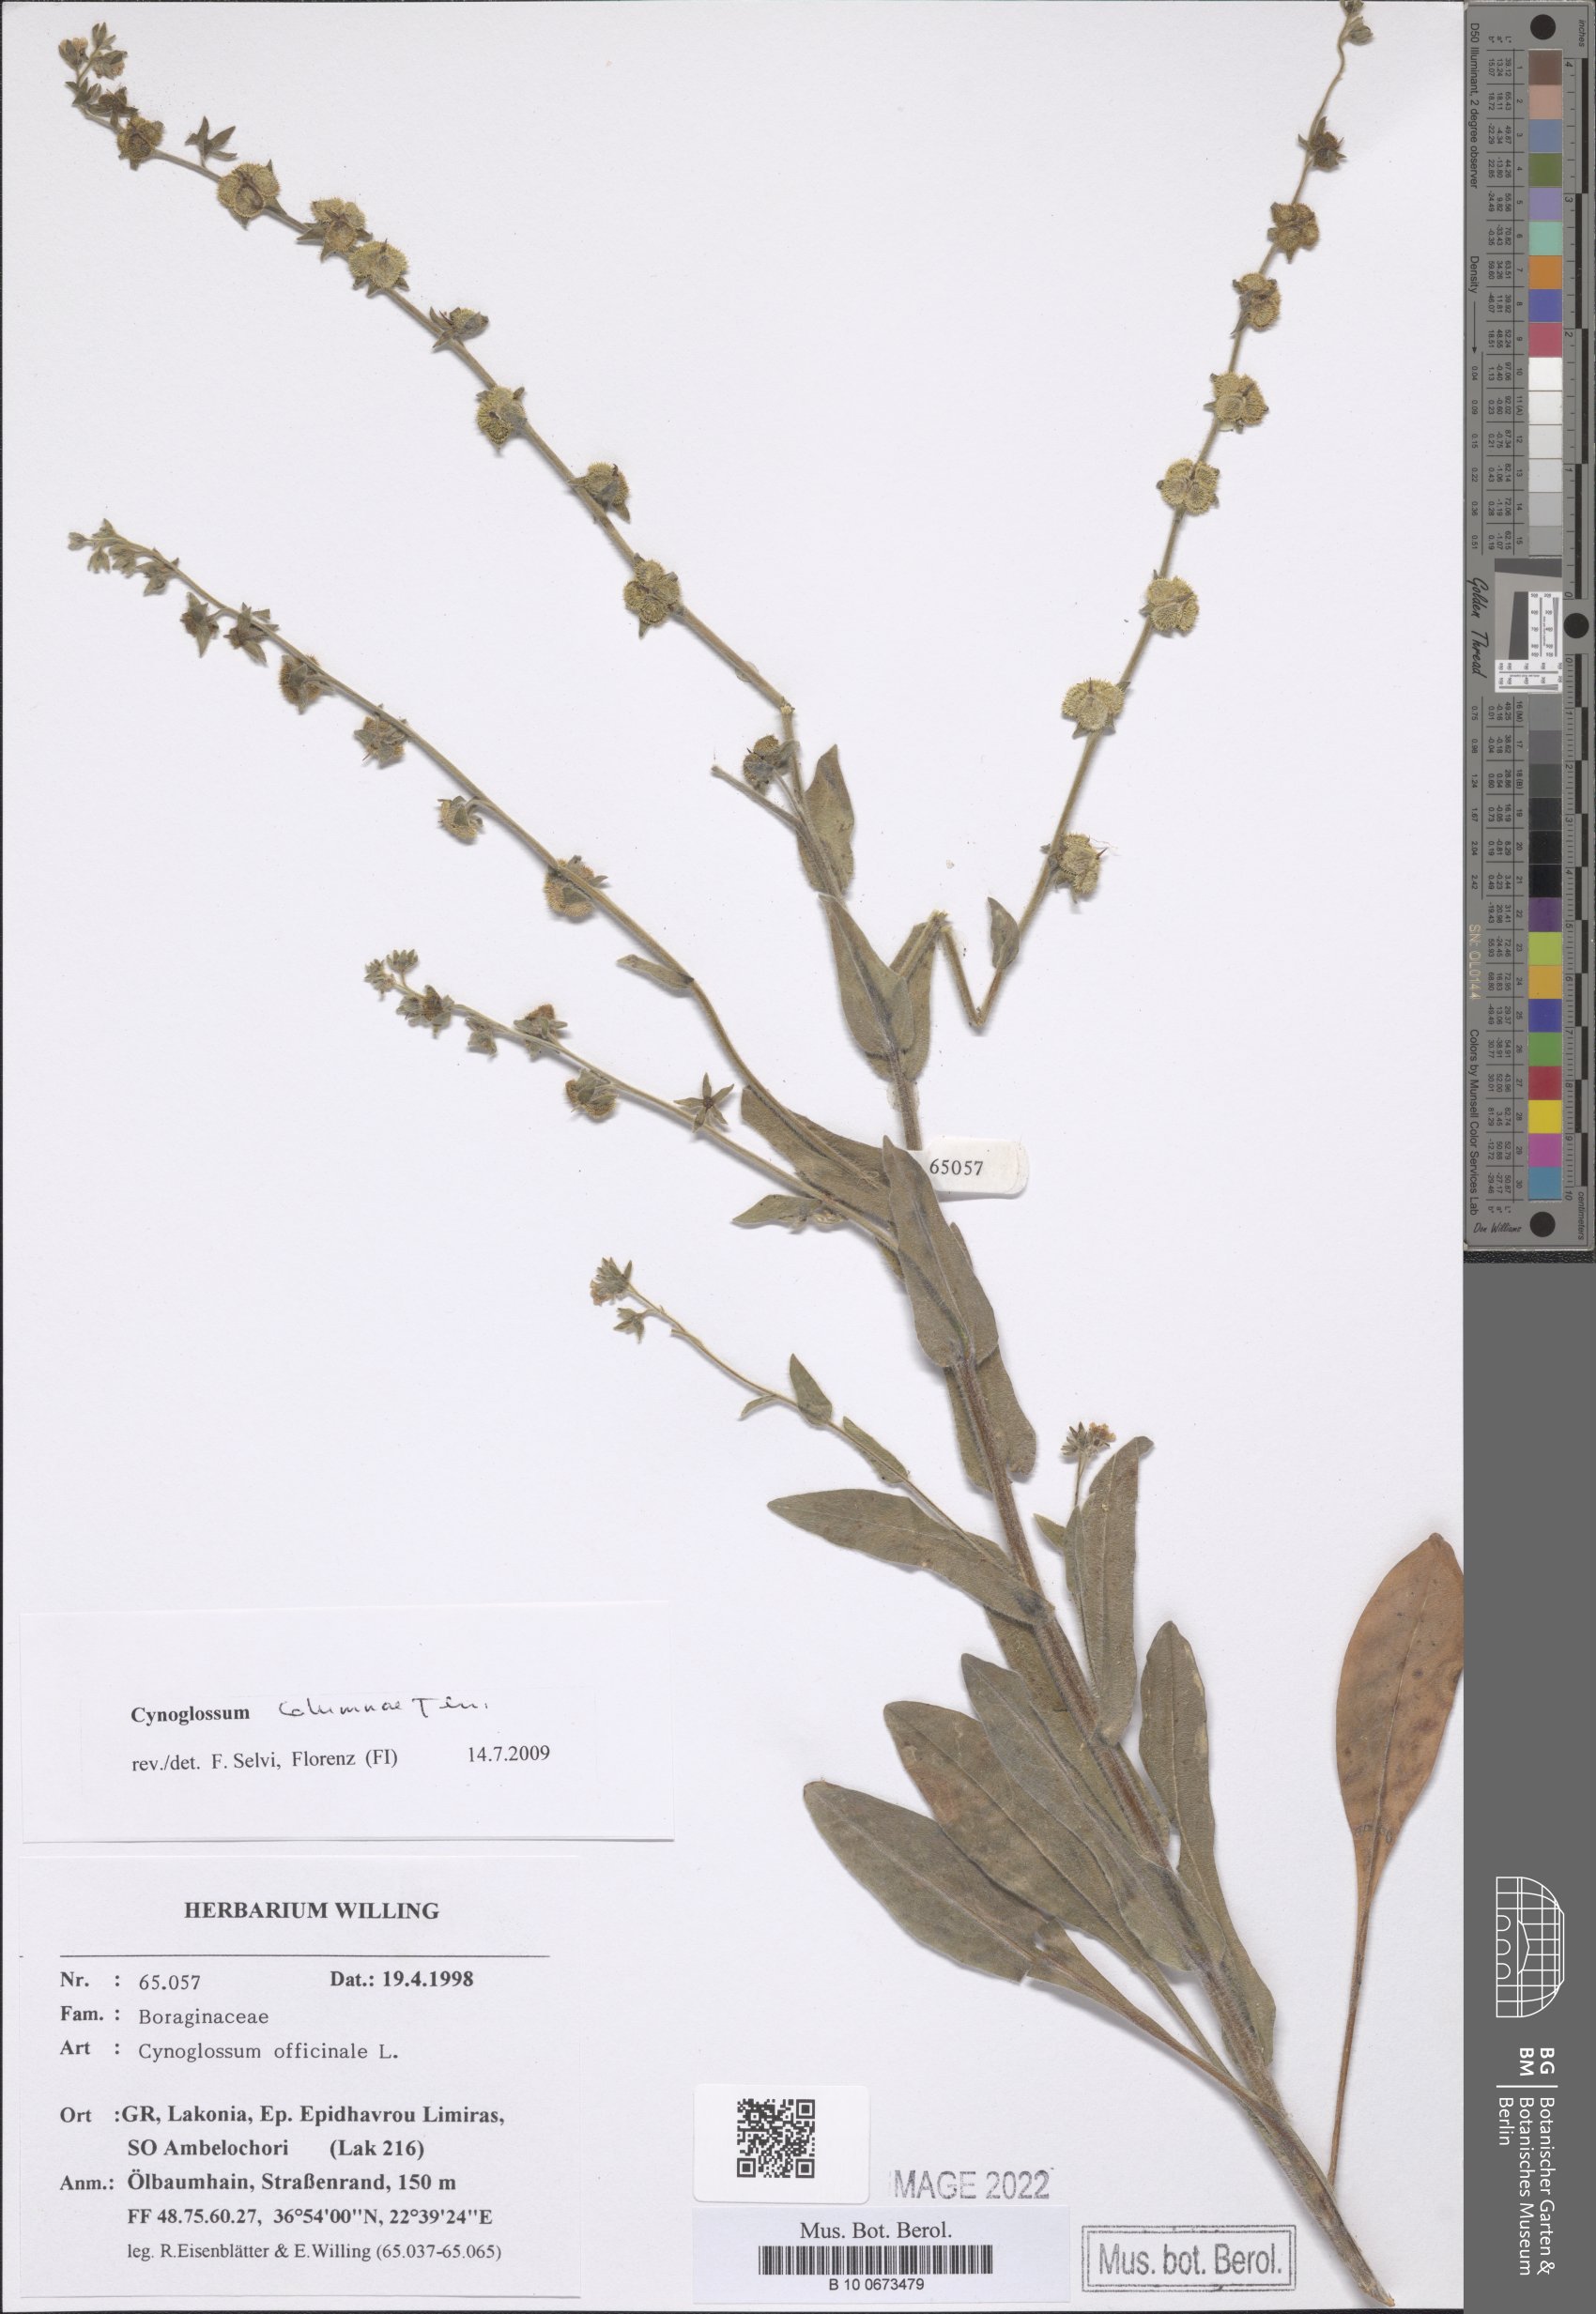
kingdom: Plantae
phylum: Tracheophyta
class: Magnoliopsida
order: Boraginales
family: Boraginaceae
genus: Rindera
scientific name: Rindera columnae
